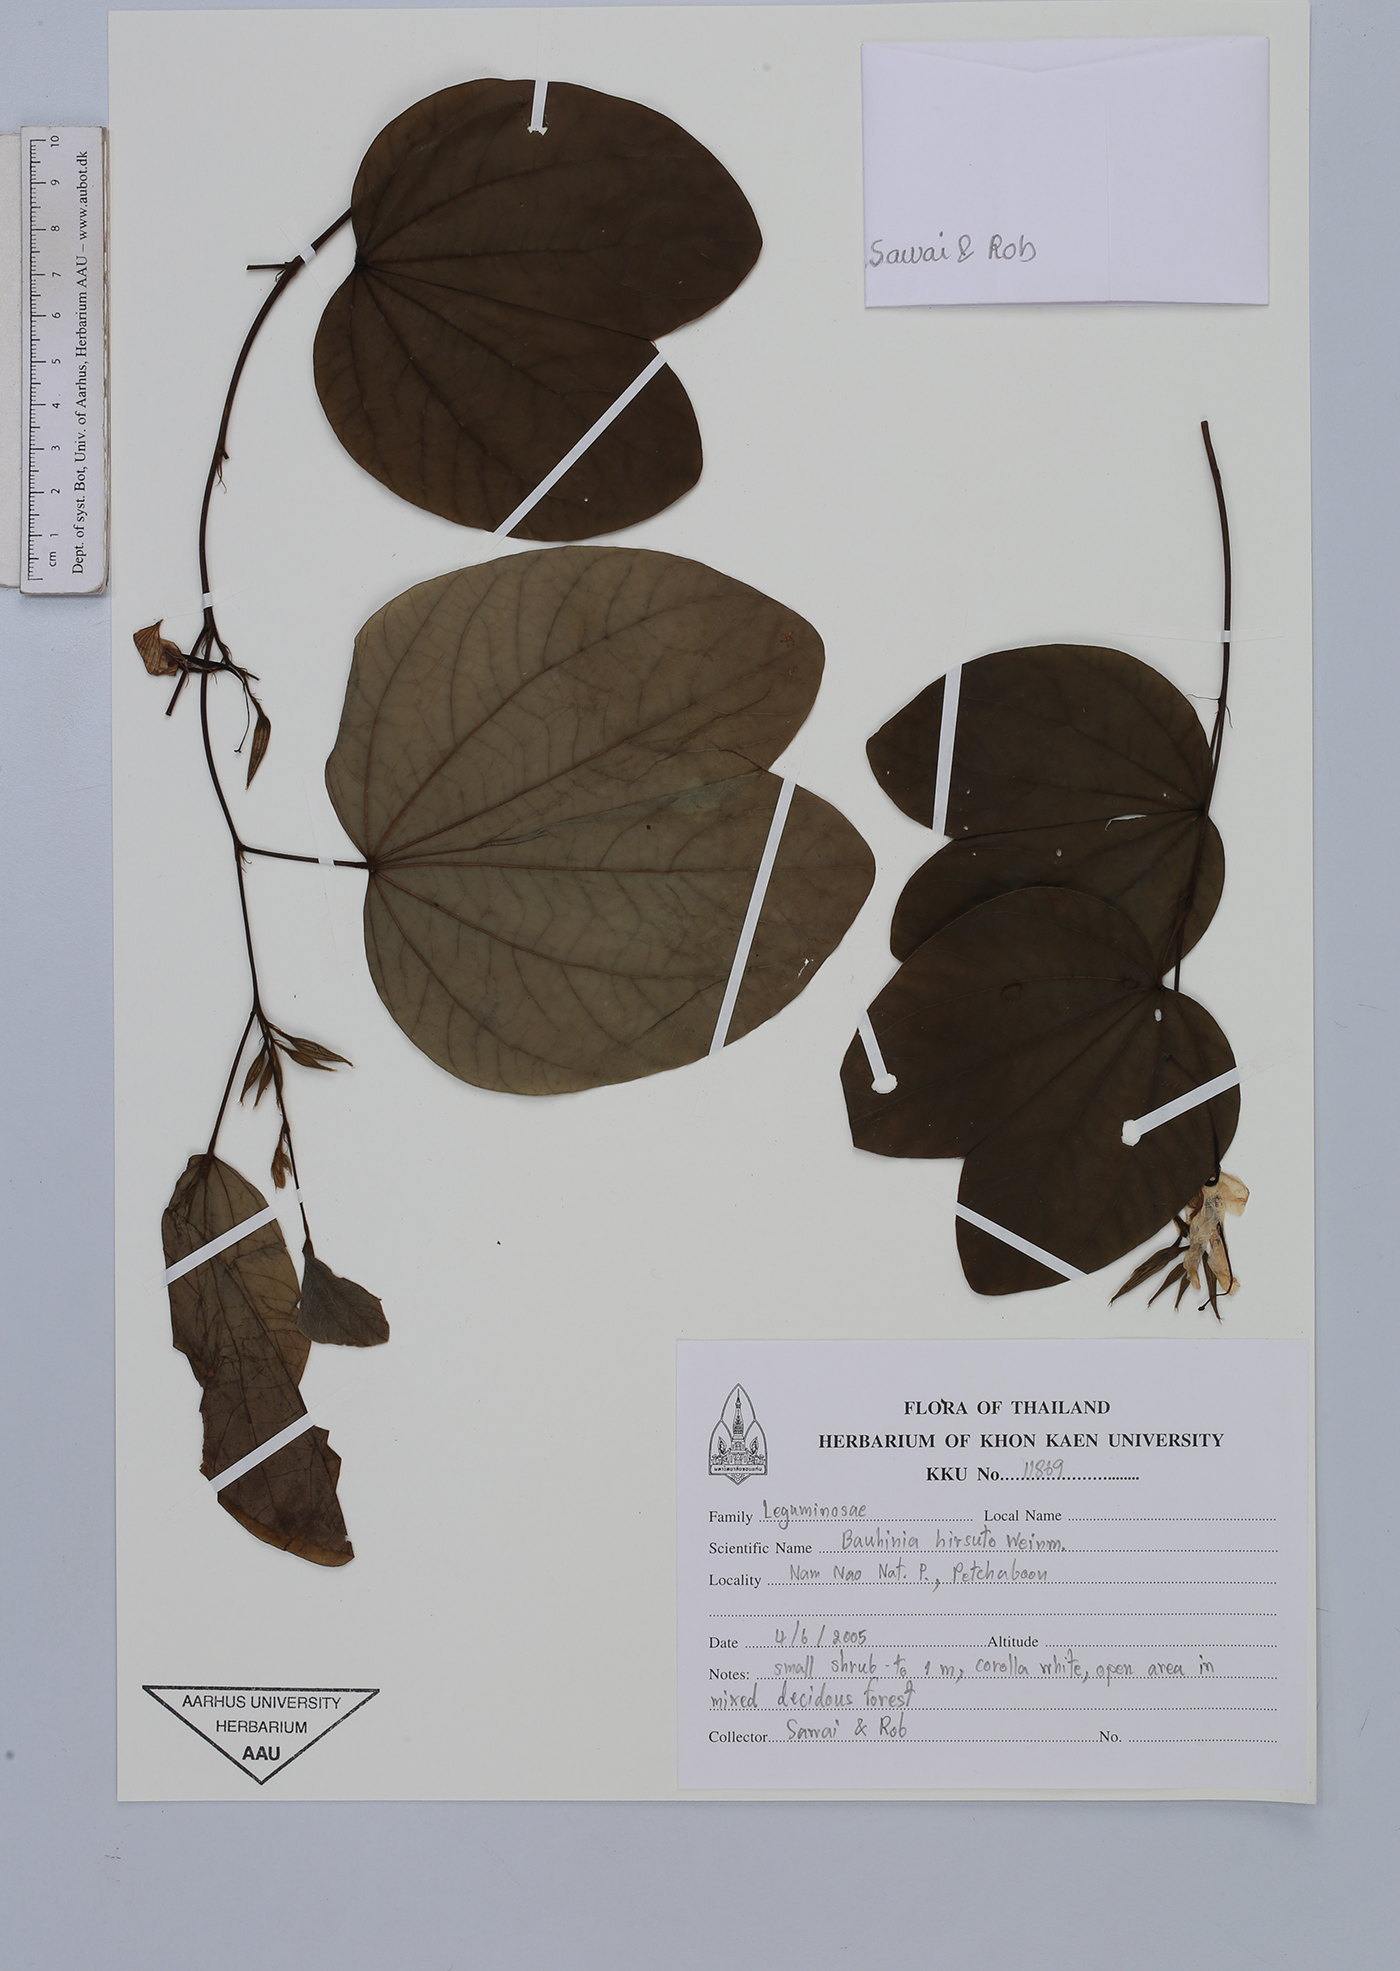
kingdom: Plantae
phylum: Tracheophyta
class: Magnoliopsida
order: Fabales
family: Fabaceae
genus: Bauhinia
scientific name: Bauhinia hirsuta
